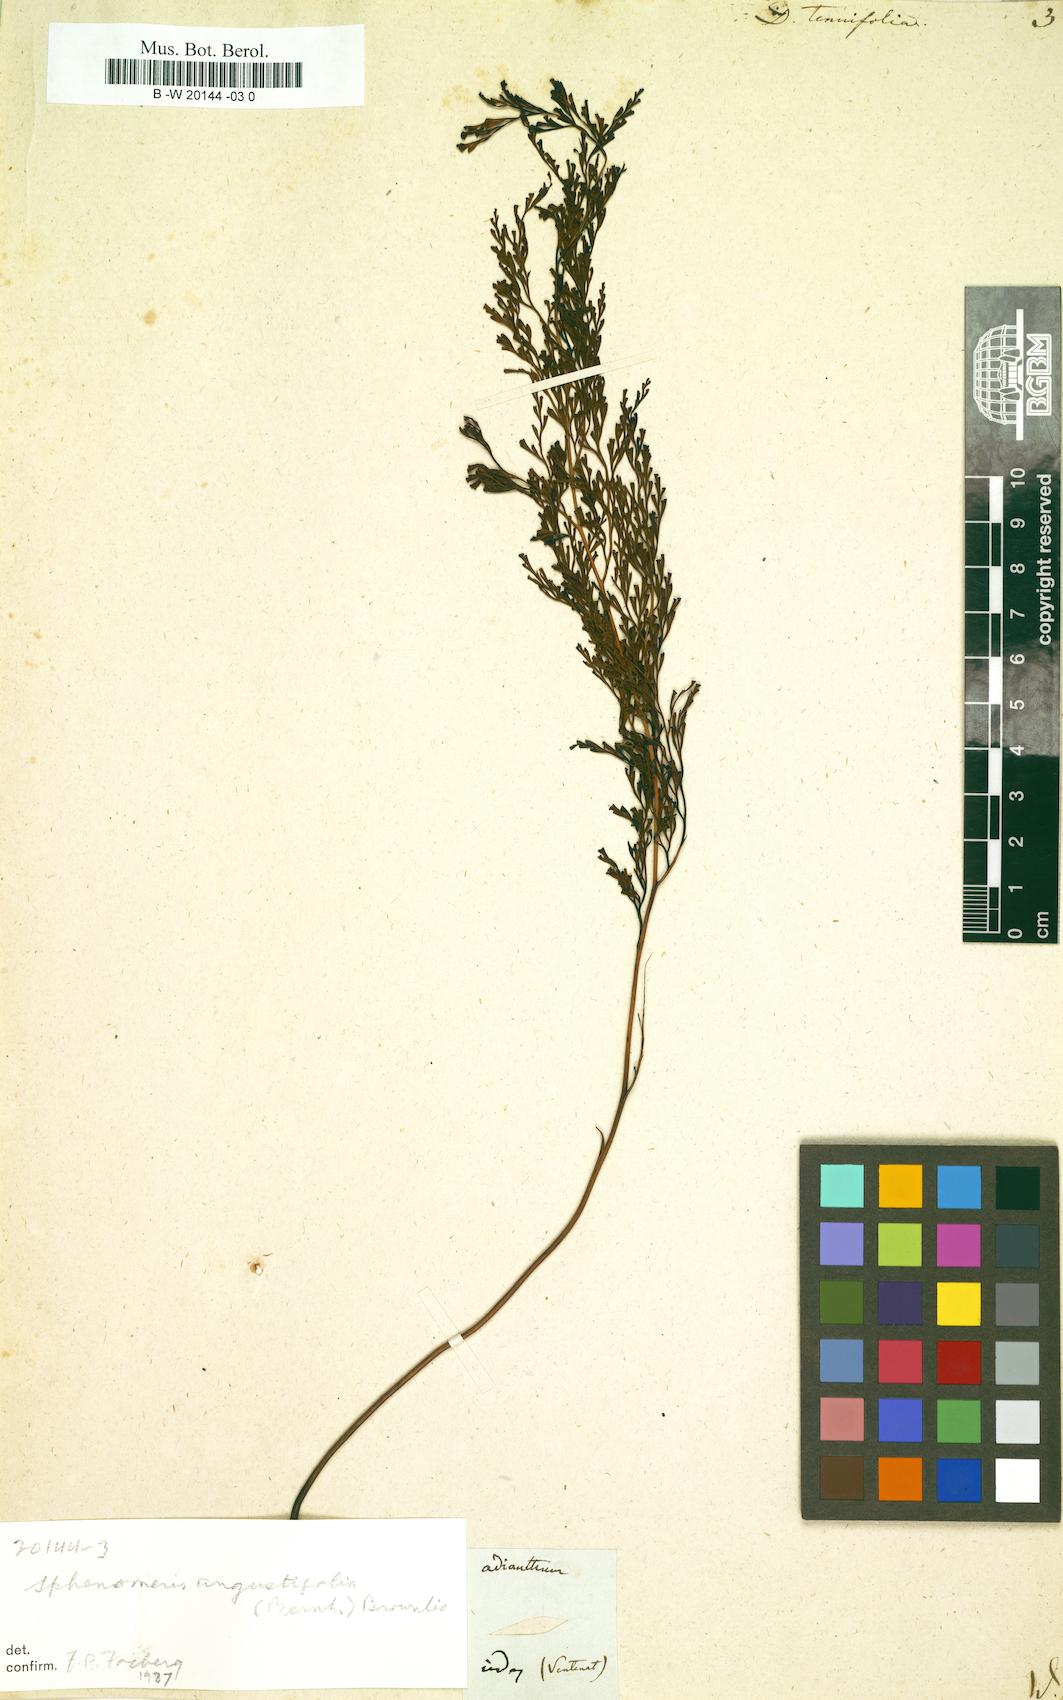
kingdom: Plantae
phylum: Tracheophyta
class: Polypodiopsida
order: Polypodiales
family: Lindsaeaceae
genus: Odontosoria
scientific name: Odontosoria chinensis
